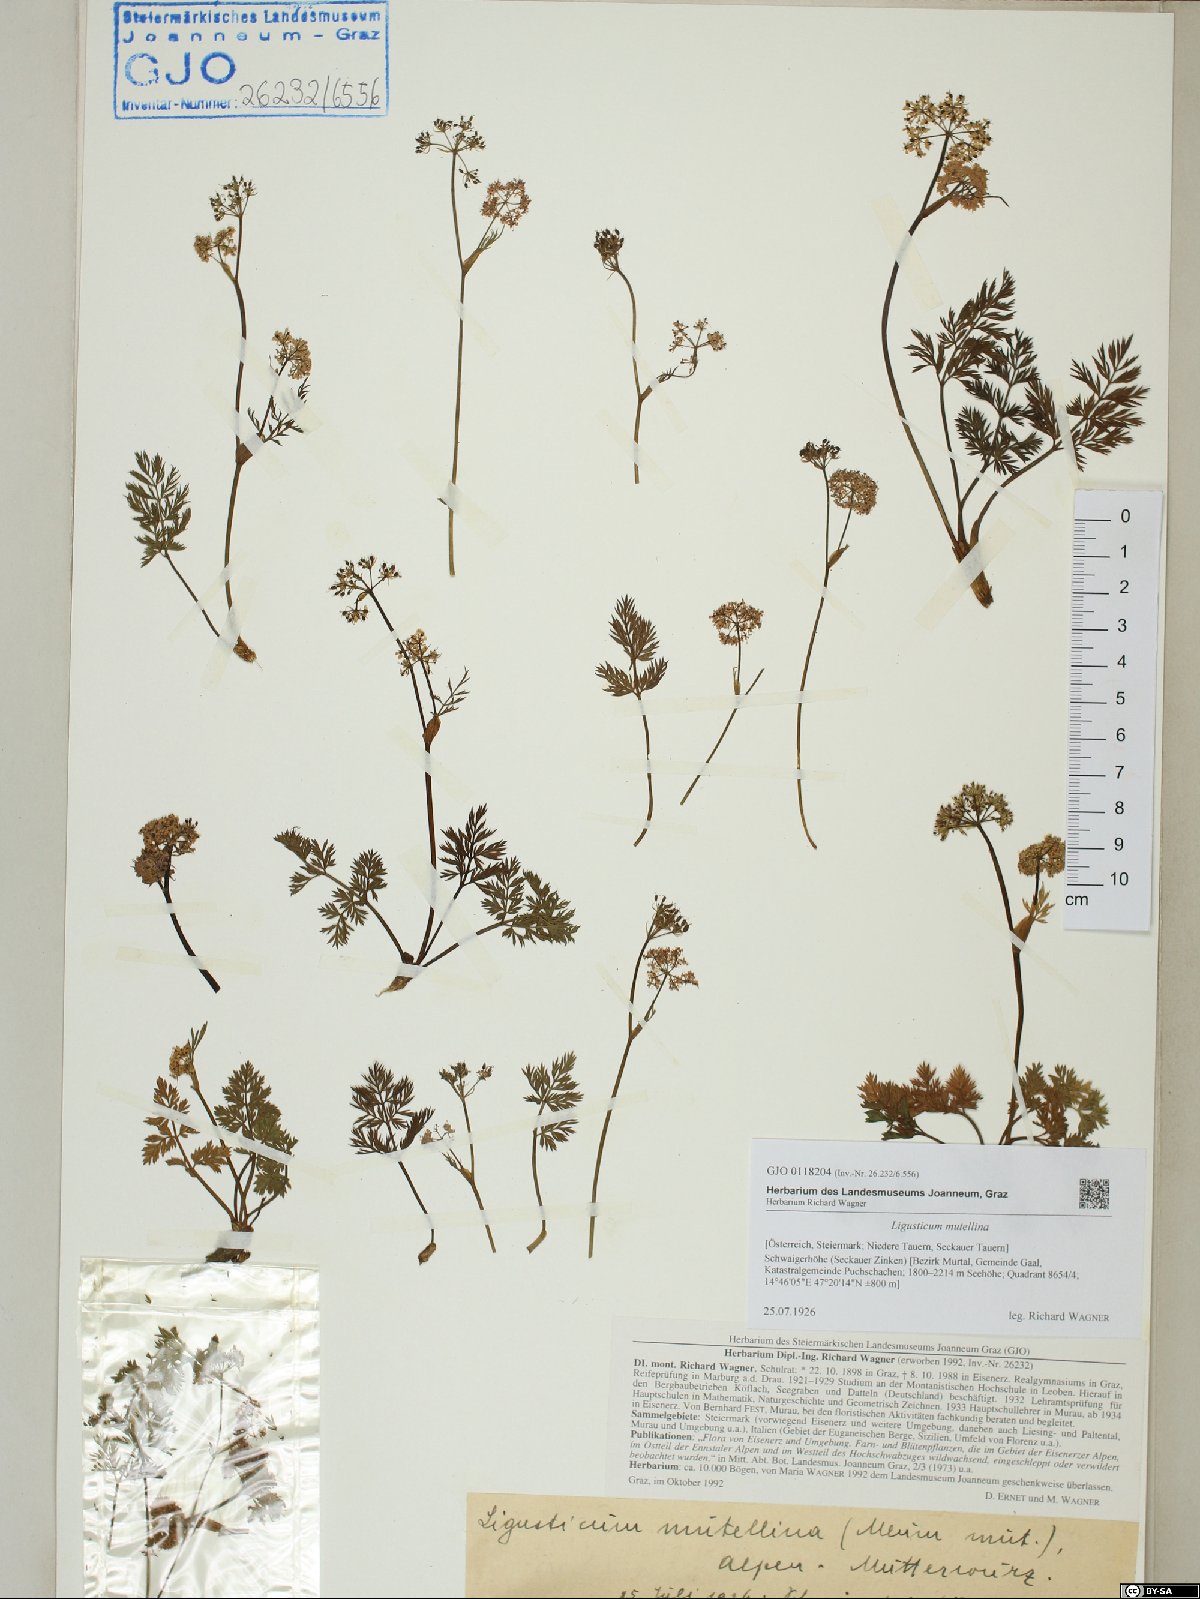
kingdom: Plantae
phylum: Tracheophyta
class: Magnoliopsida
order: Apiales
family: Apiaceae
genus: Mutellina
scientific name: Mutellina adonidifolia
